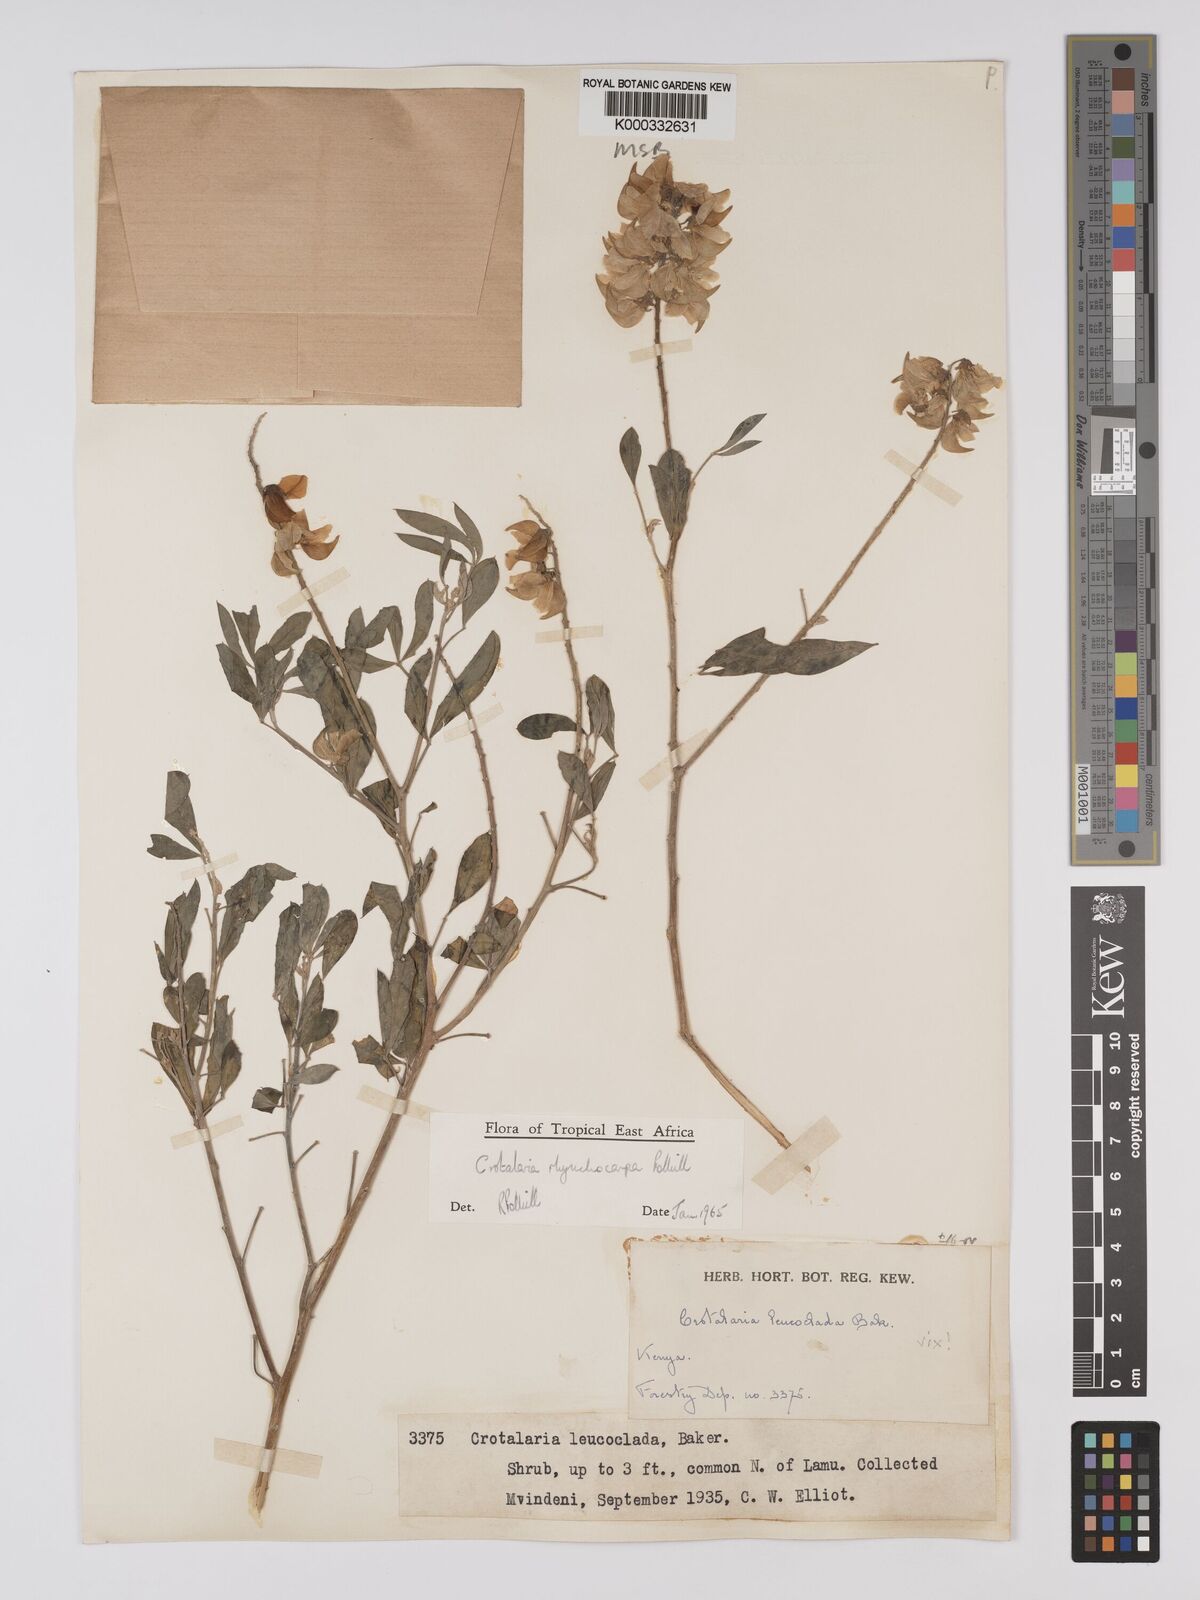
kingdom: Plantae
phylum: Tracheophyta
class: Magnoliopsida
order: Fabales
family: Fabaceae
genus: Crotalaria
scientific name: Crotalaria rhynchocarpa
